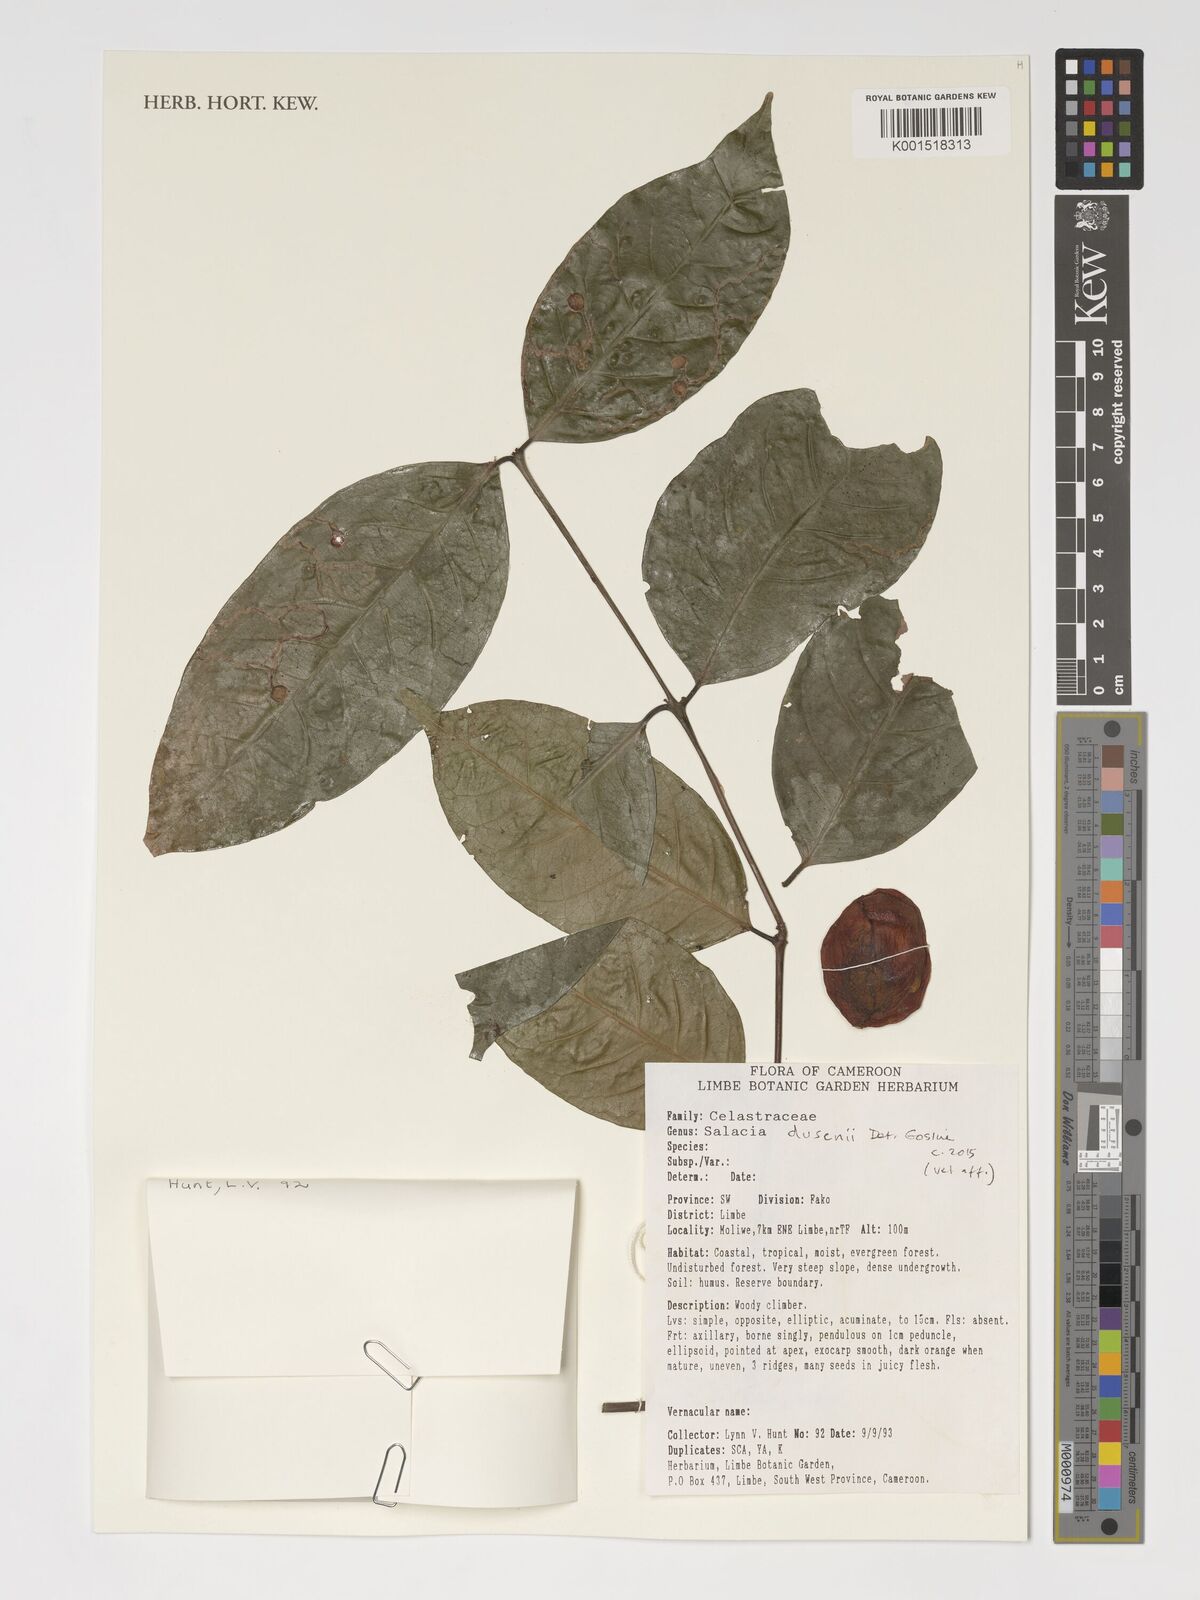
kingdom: Plantae
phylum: Tracheophyta
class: Magnoliopsida
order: Celastrales
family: Celastraceae
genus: Salacia
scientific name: Salacia dusenii
